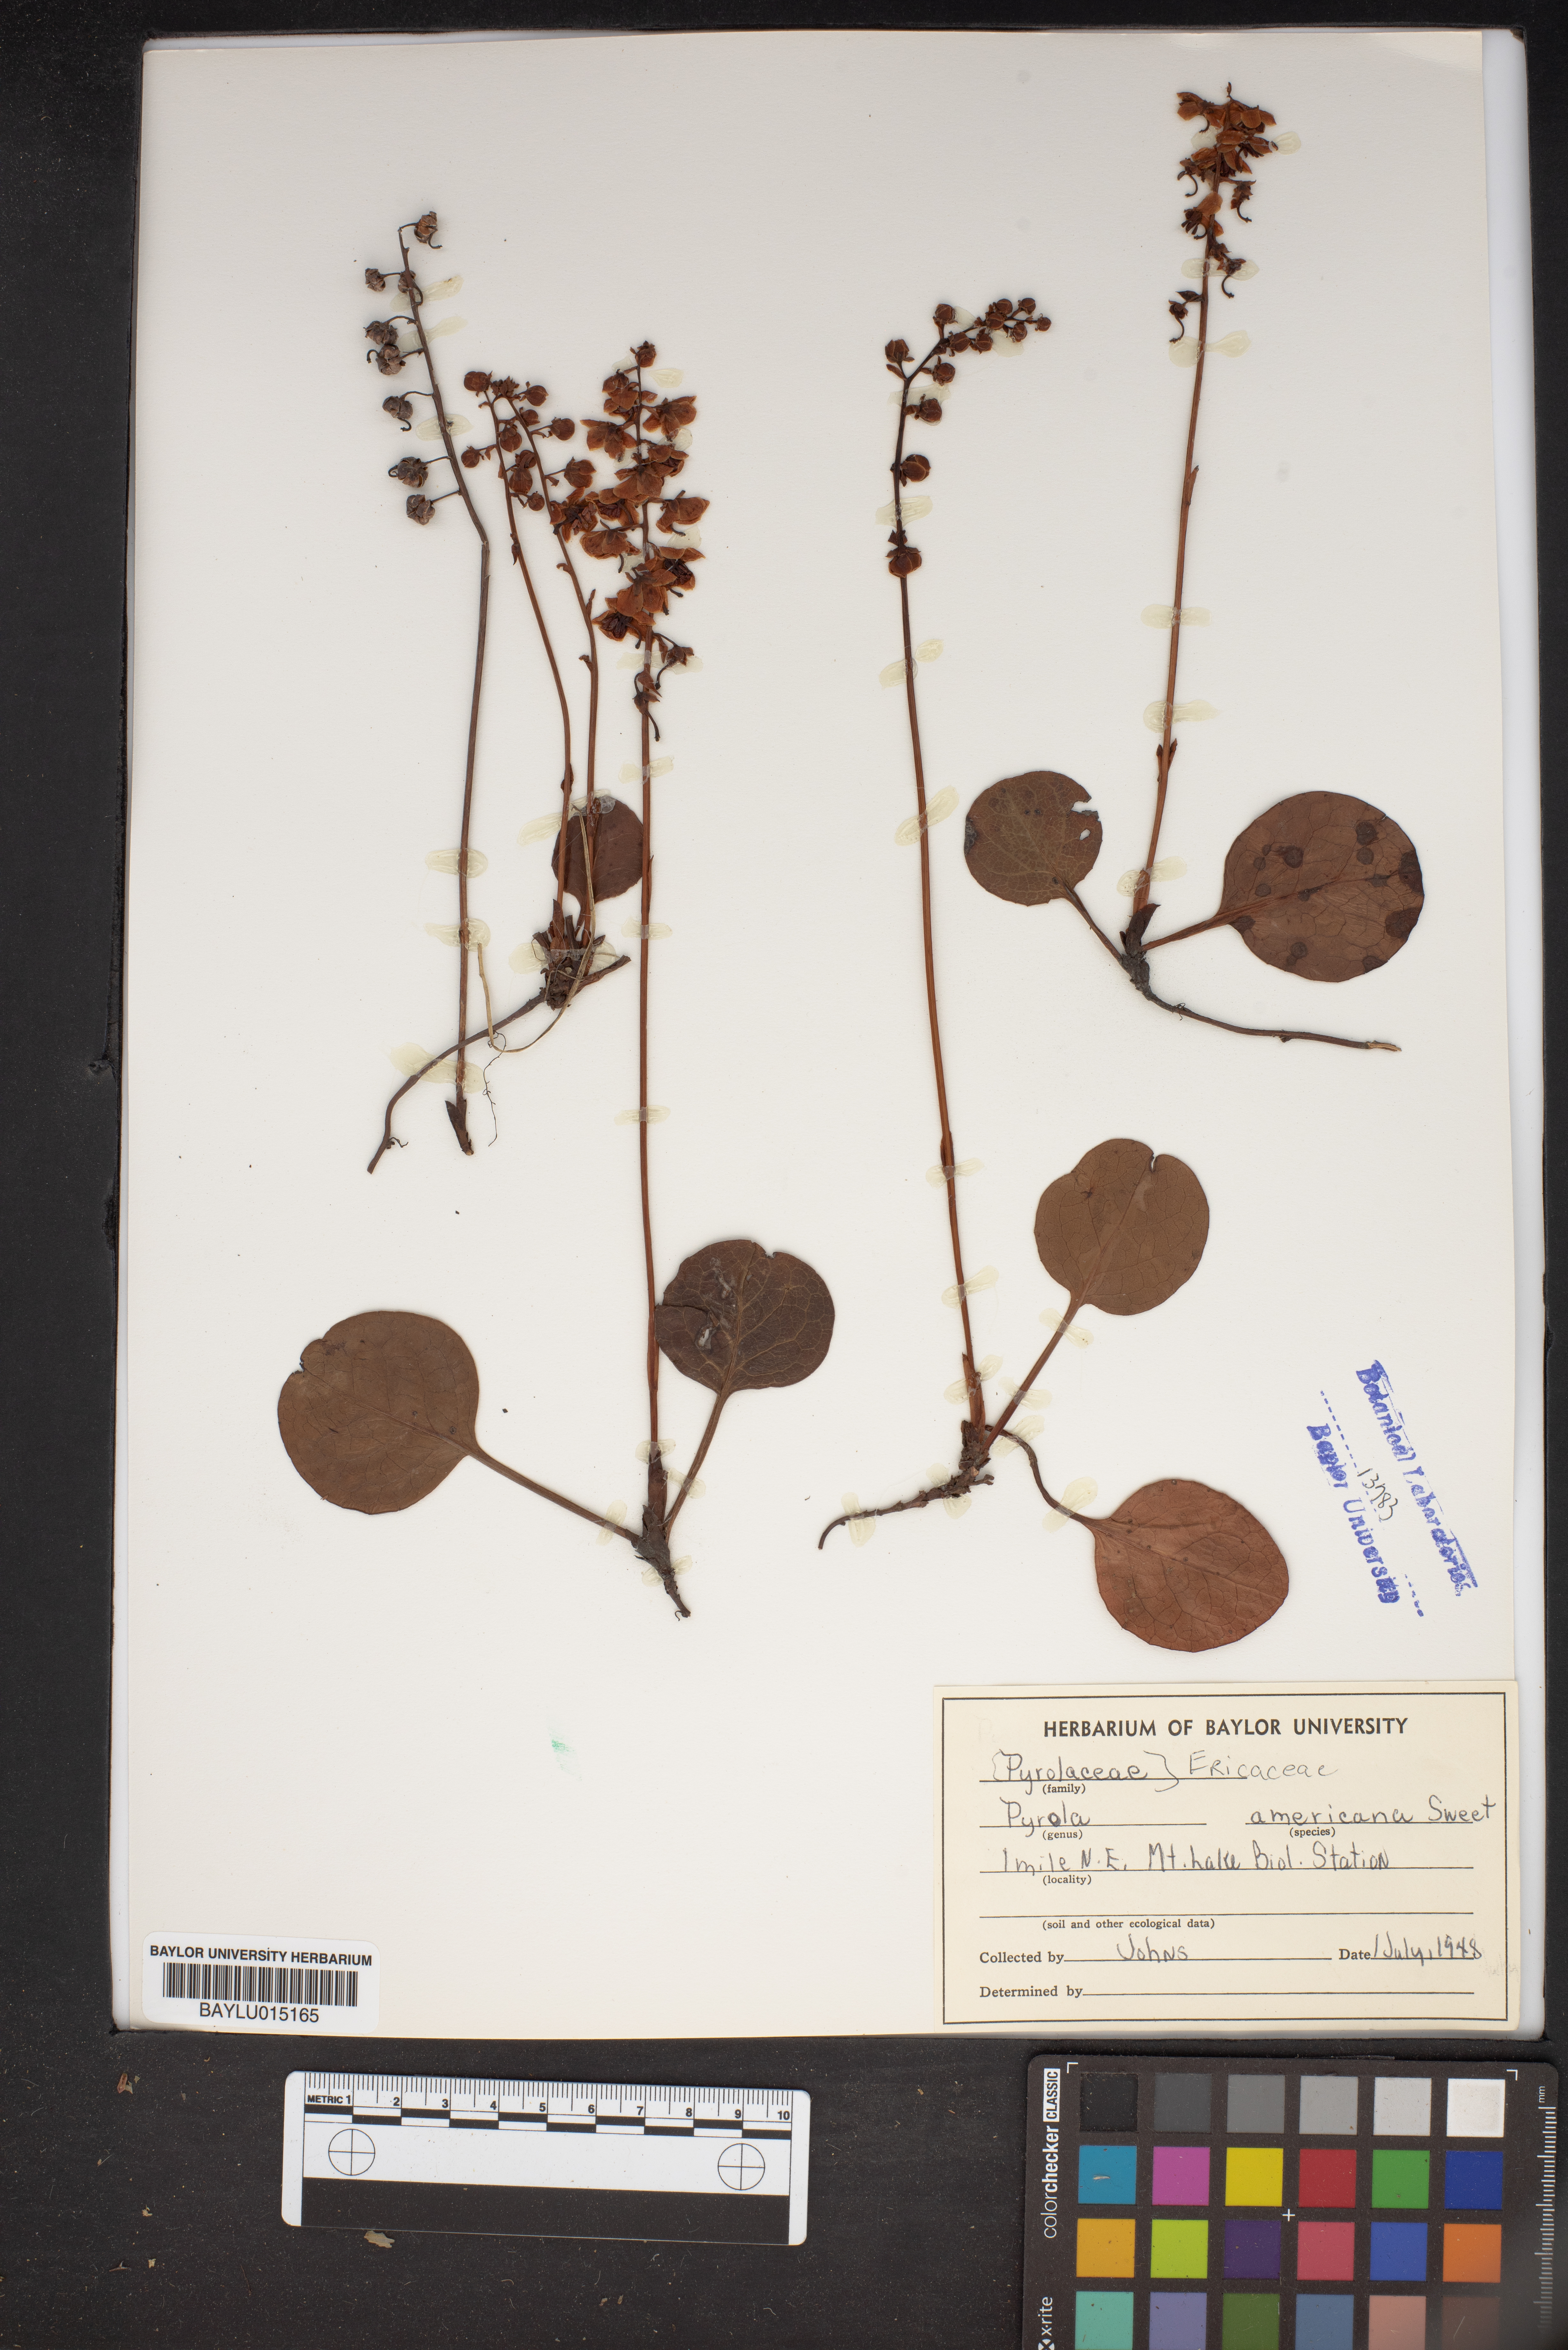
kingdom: Plantae
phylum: Tracheophyta
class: Magnoliopsida
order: Ericales
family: Ericaceae
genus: Pyrola
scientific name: Pyrola americana
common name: American wintergreen
